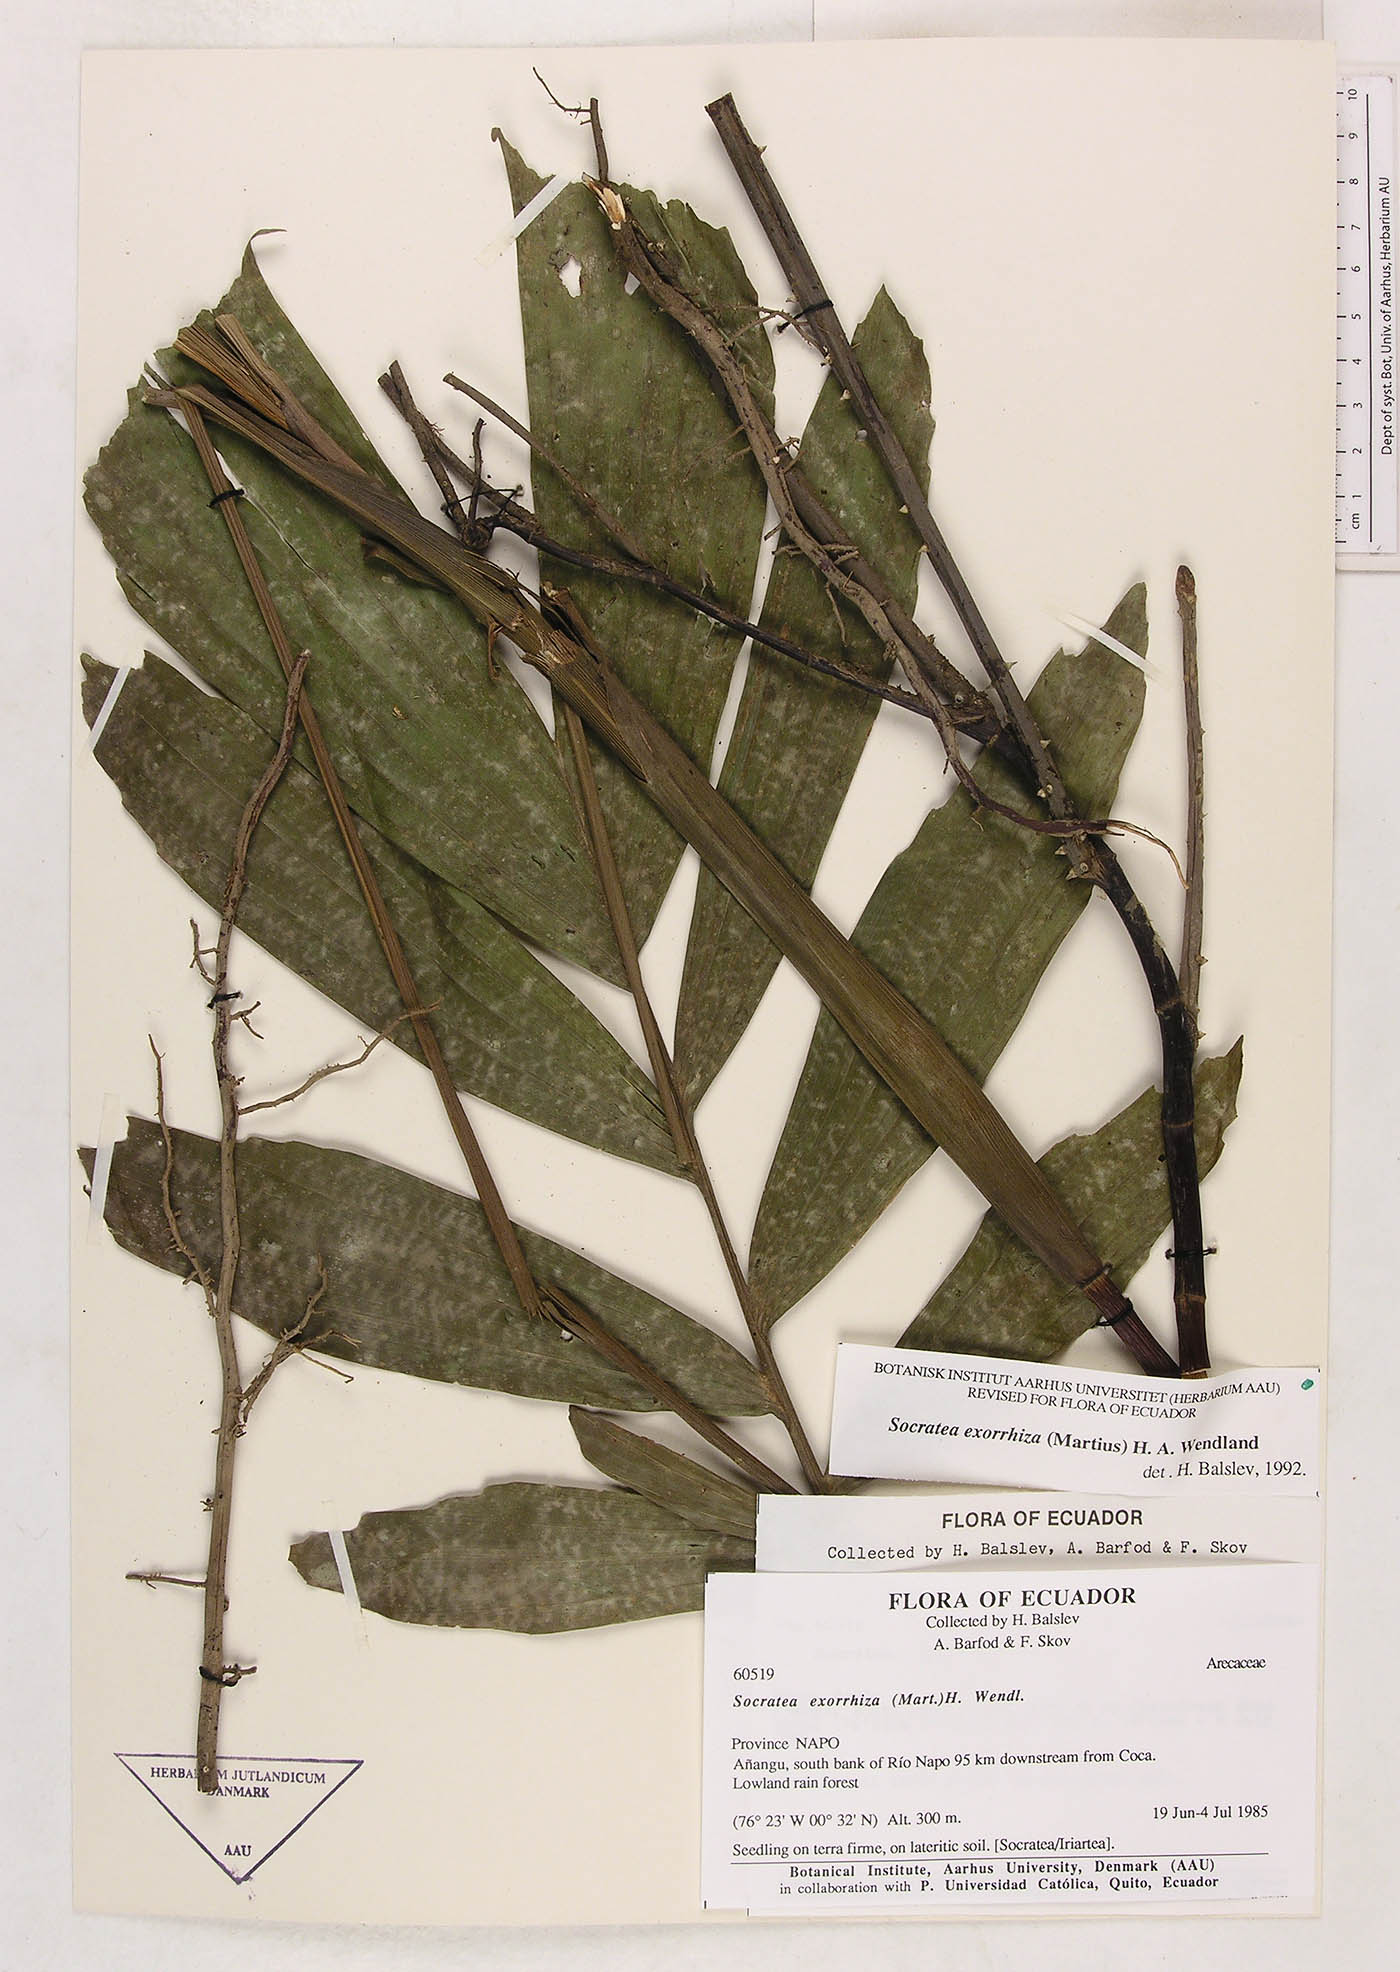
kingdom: Plantae
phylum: Tracheophyta
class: Liliopsida
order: Arecales
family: Arecaceae
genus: Socratea
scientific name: Socratea exorrhiza
